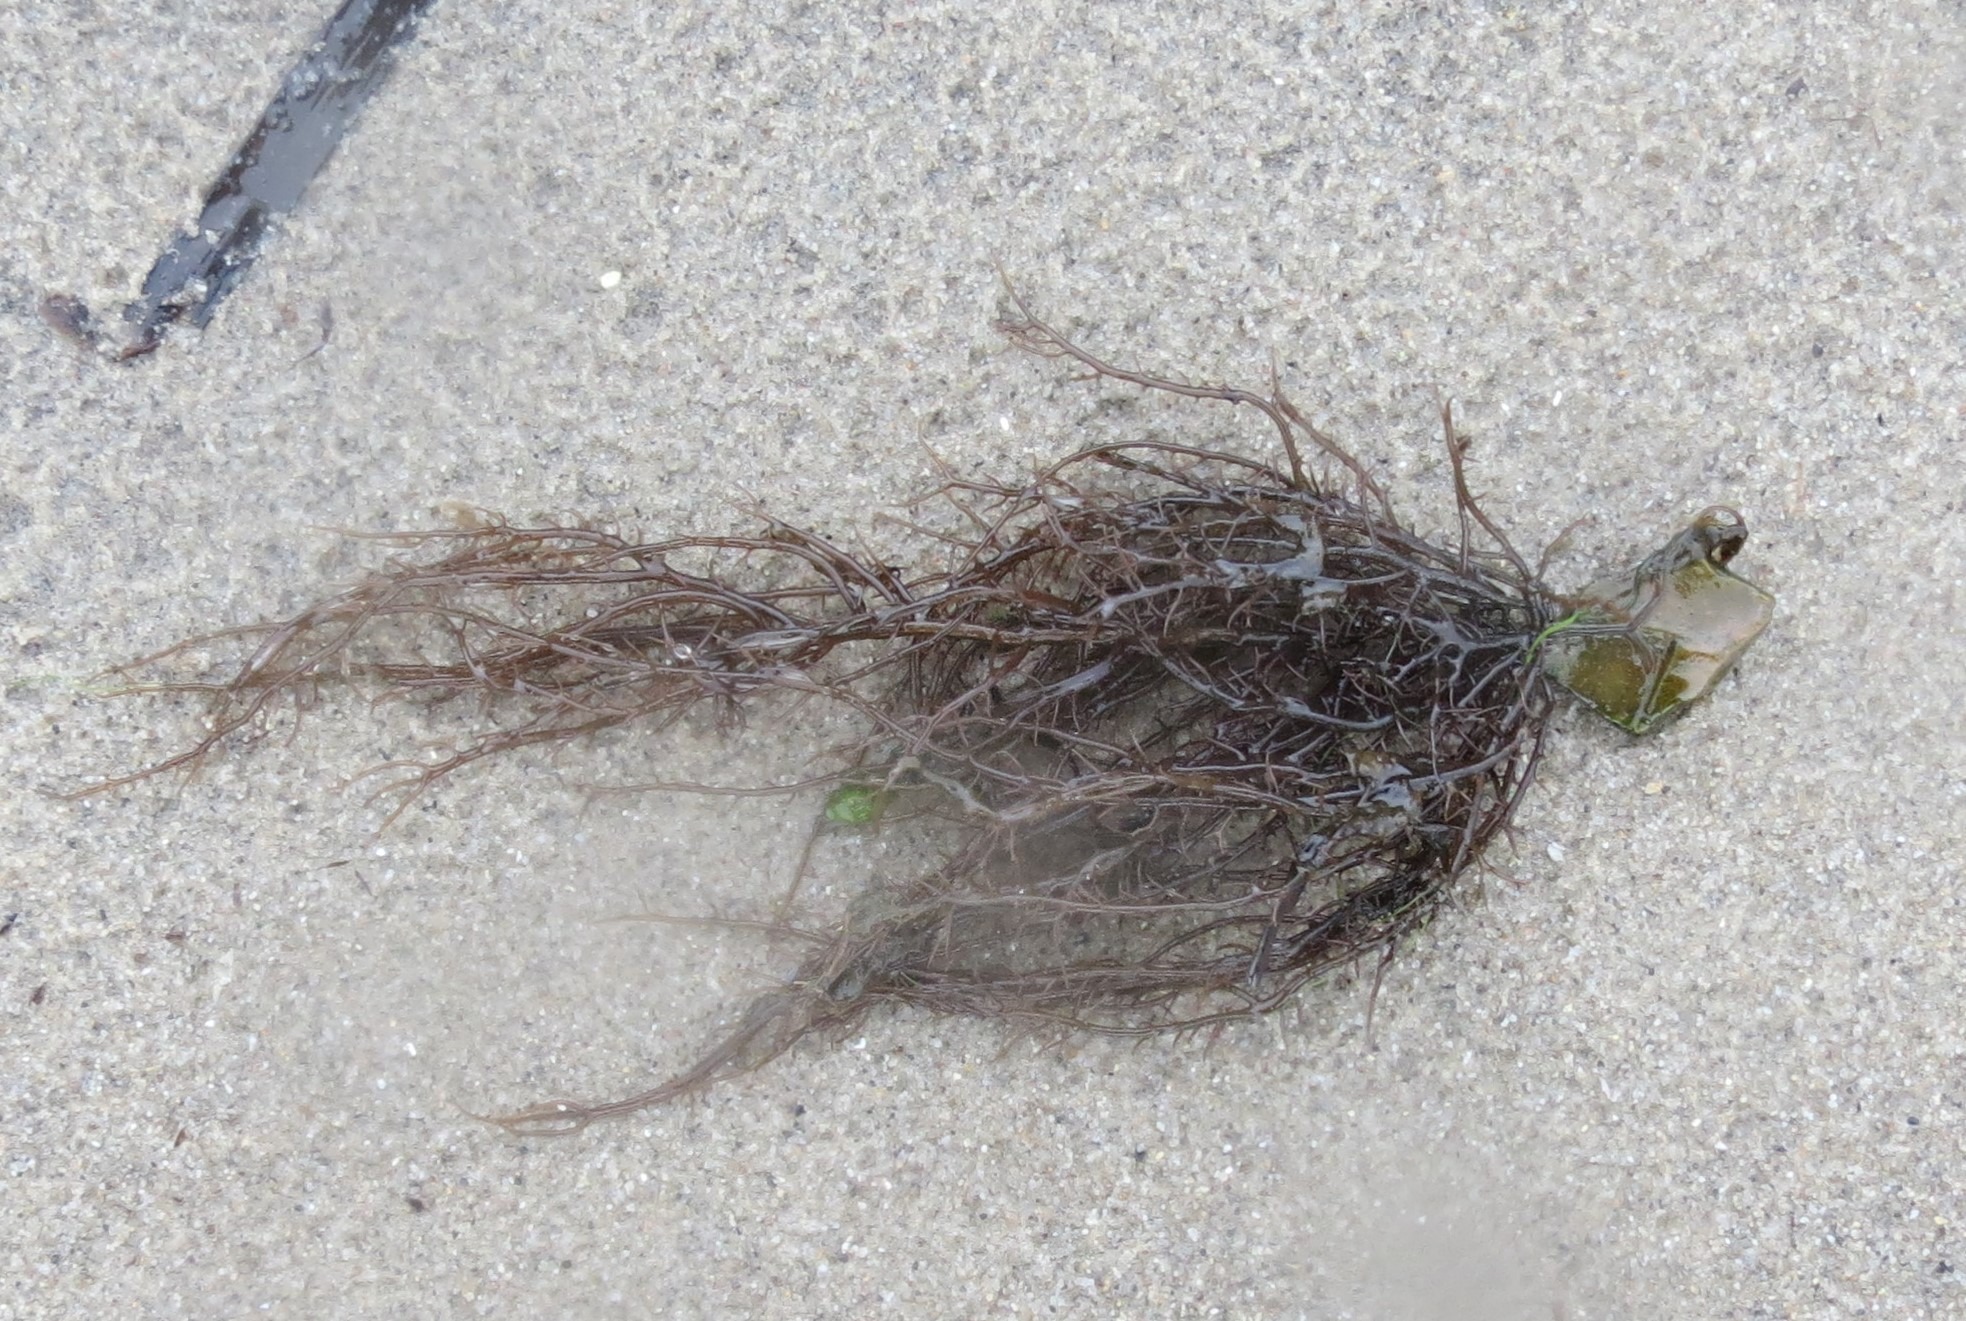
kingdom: Plantae
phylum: Rhodophyta
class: Florideophyceae
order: Gracilariales
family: Gracilariaceae
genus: Gracilaria
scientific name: Gracilaria vermiculophylla
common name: Brunlig gracilariatang
